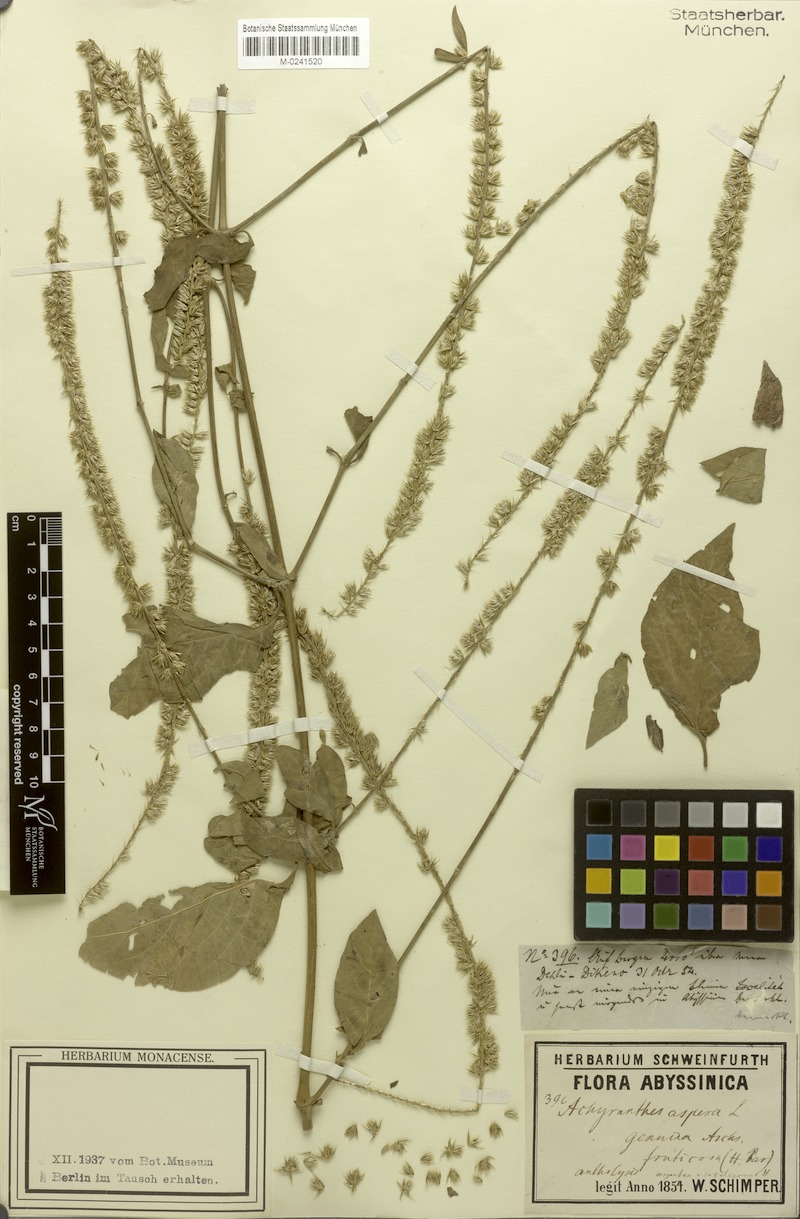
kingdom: Plantae
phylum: Tracheophyta
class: Magnoliopsida
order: Caryophyllales
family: Amaranthaceae
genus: Achyranthes
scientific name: Achyranthes aspera
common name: Devil's horsewhip
